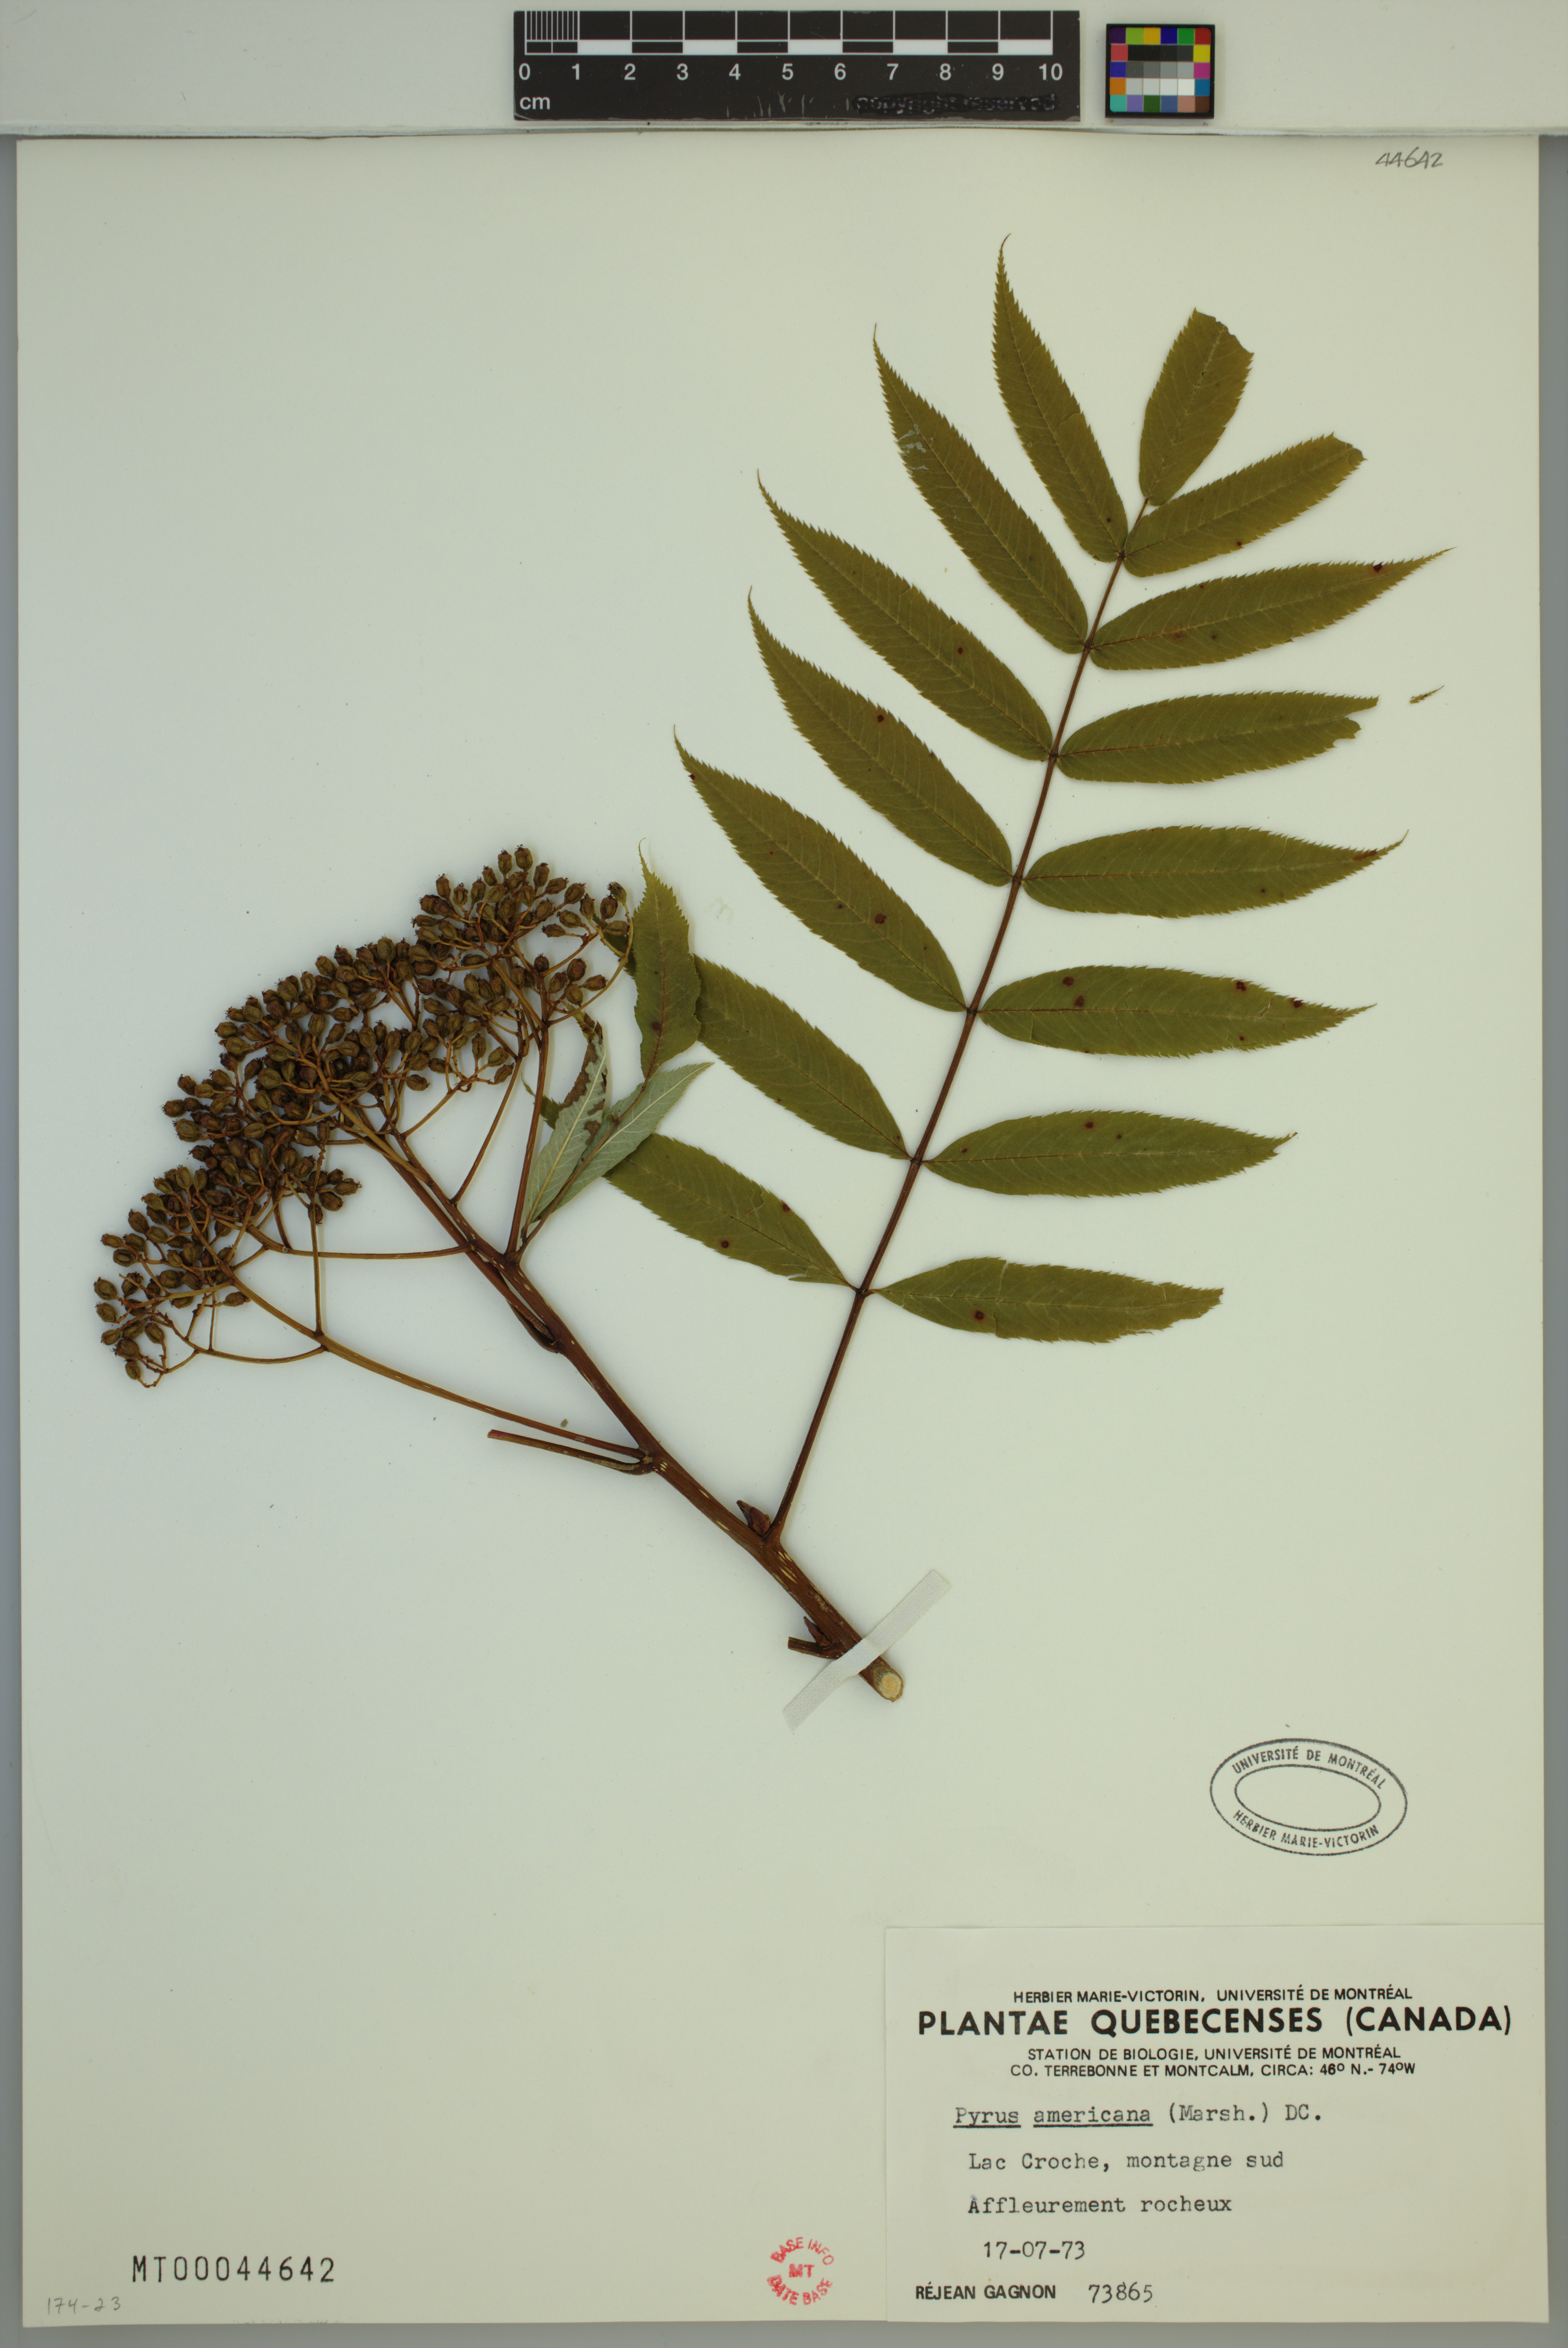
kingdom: Plantae
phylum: Tracheophyta
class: Magnoliopsida
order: Rosales
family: Rosaceae
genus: Sorbus
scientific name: Sorbus americana
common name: American mountain-ash
